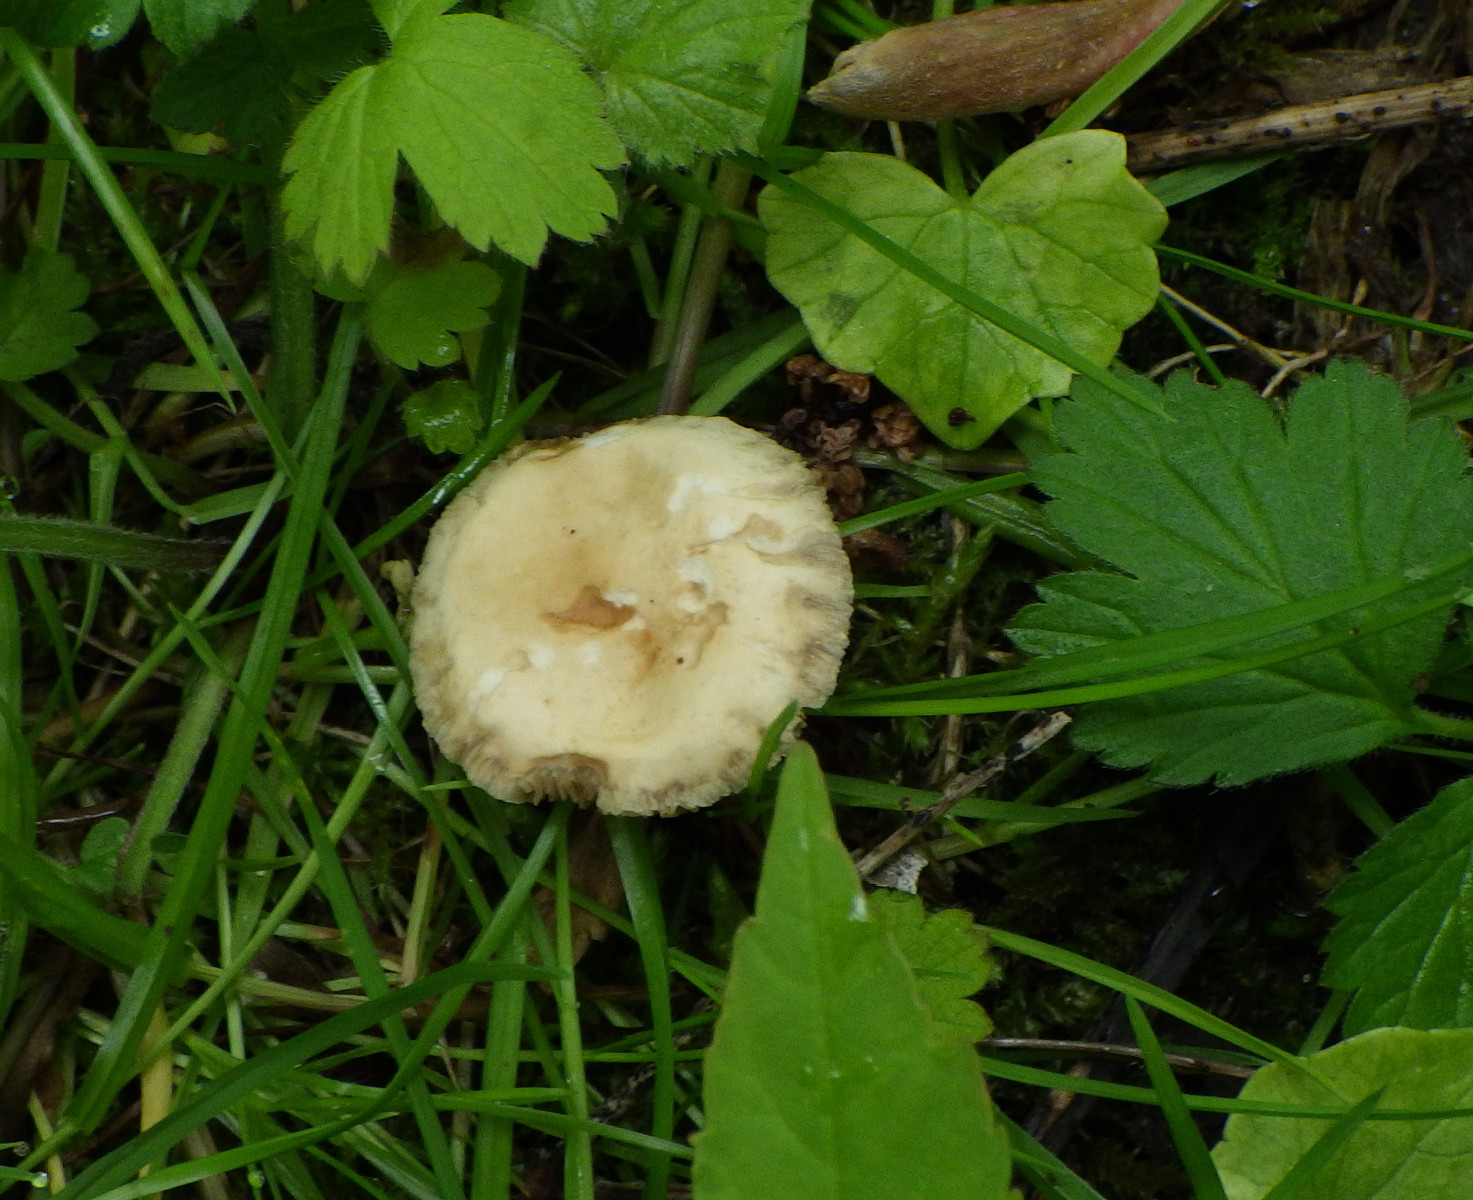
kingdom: Fungi
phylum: Basidiomycota
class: Agaricomycetes
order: Agaricales
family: Strophariaceae
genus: Agrocybe
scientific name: Agrocybe
